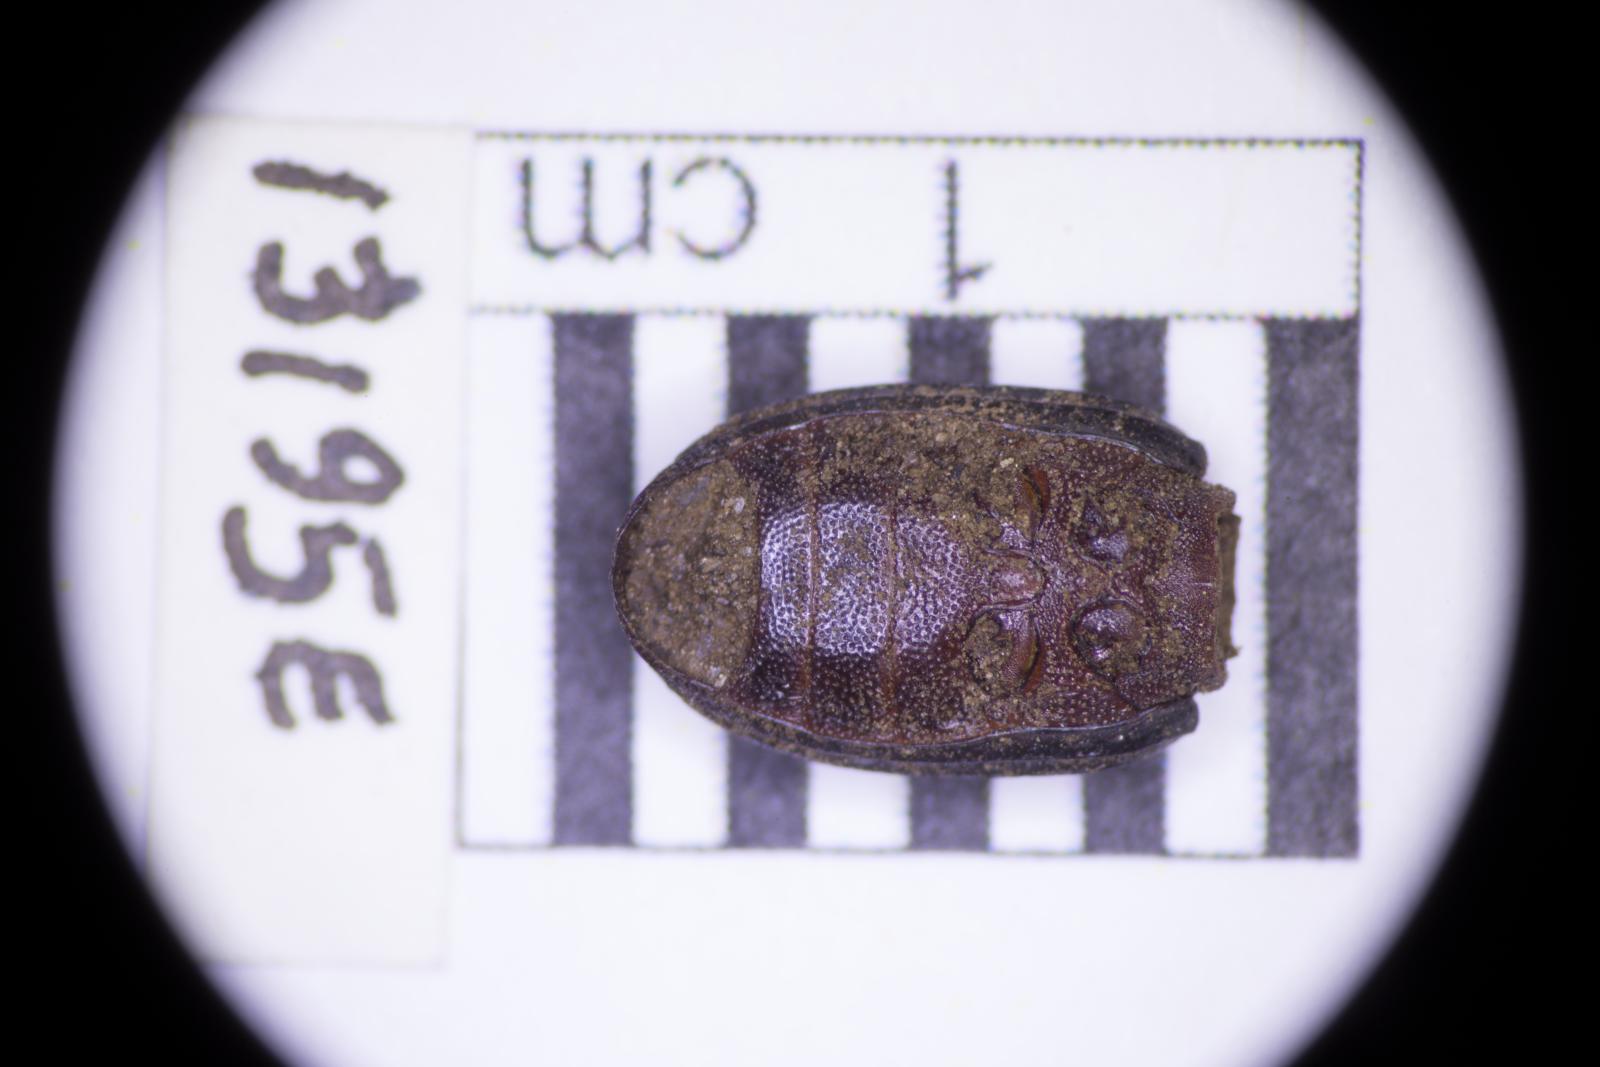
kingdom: Animalia
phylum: Arthropoda
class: Insecta
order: Coleoptera
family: Tenebrionidae
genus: Apsena
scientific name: Apsena laticornis
